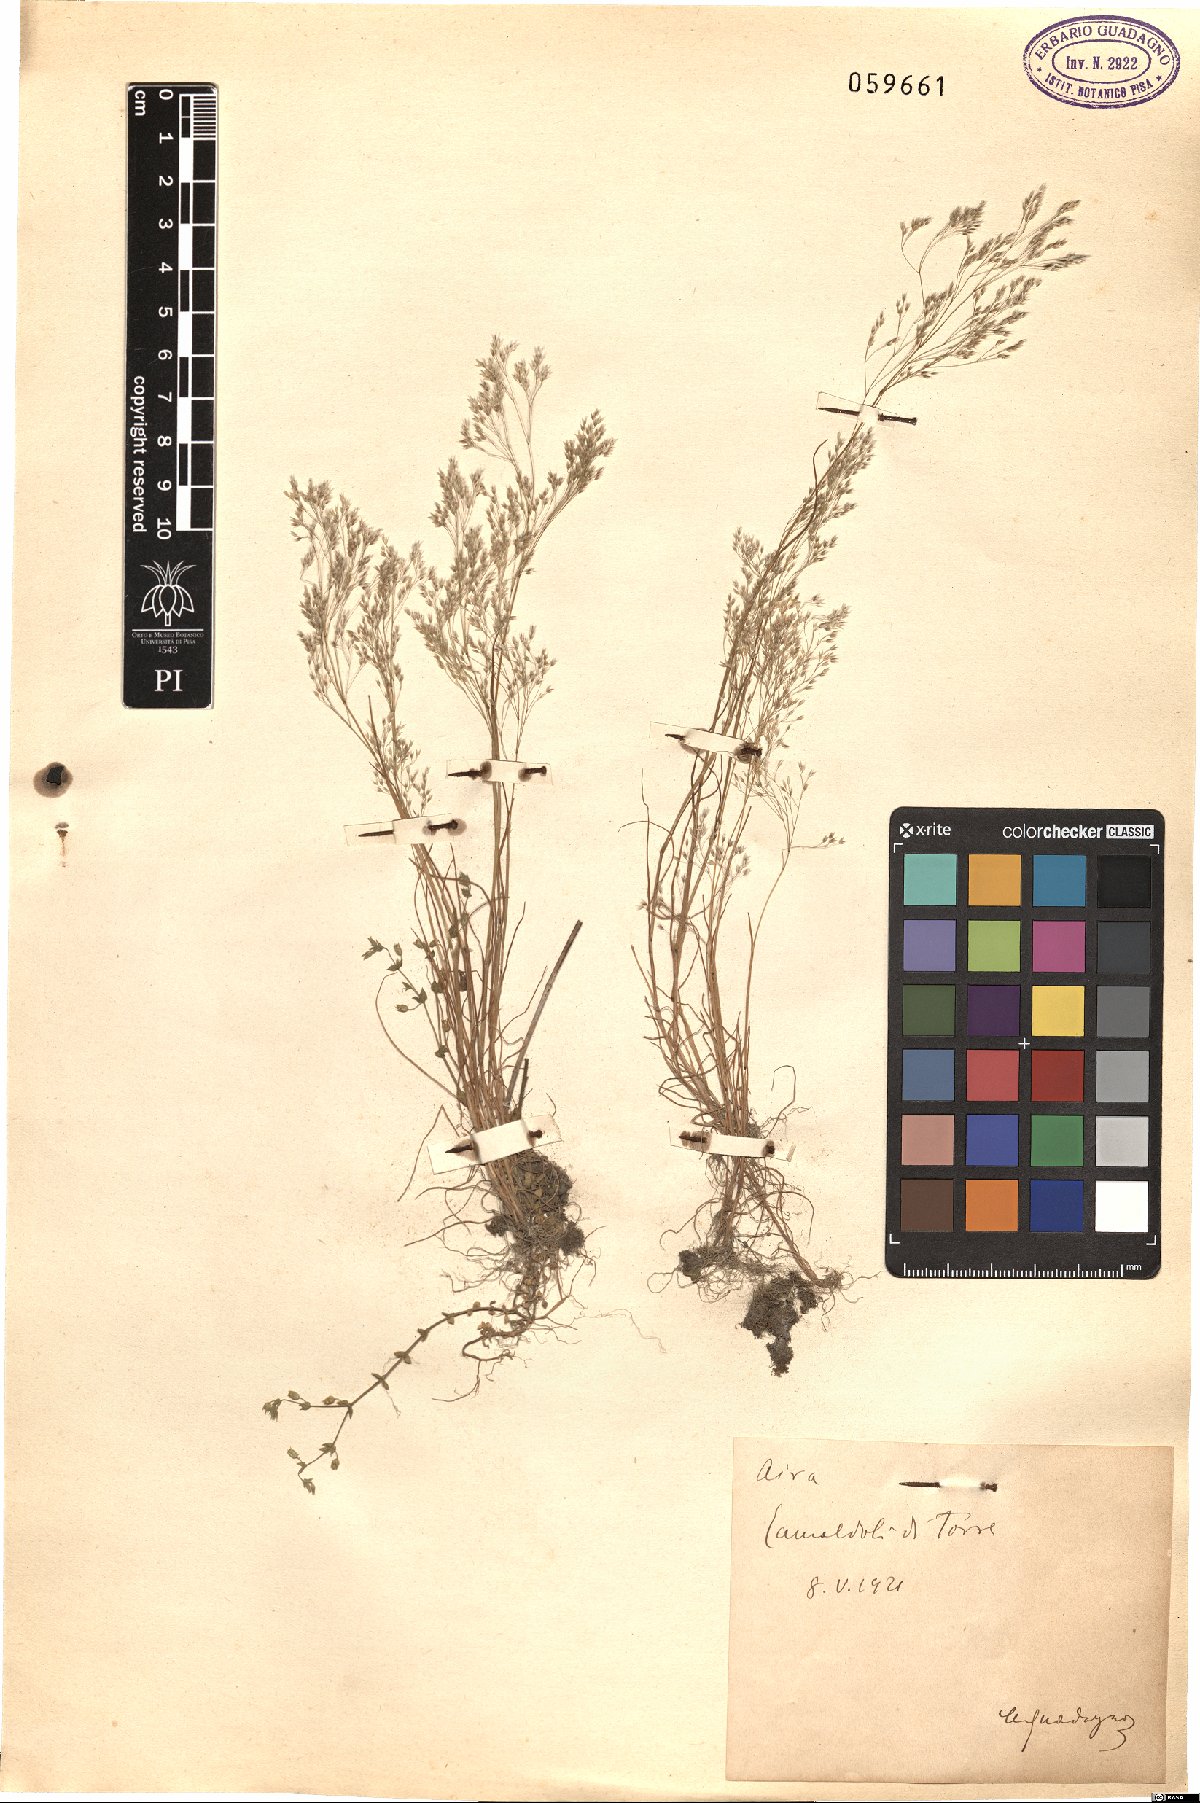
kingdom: Plantae
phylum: Tracheophyta
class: Liliopsida
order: Poales
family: Poaceae
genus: Aira
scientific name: Aira
